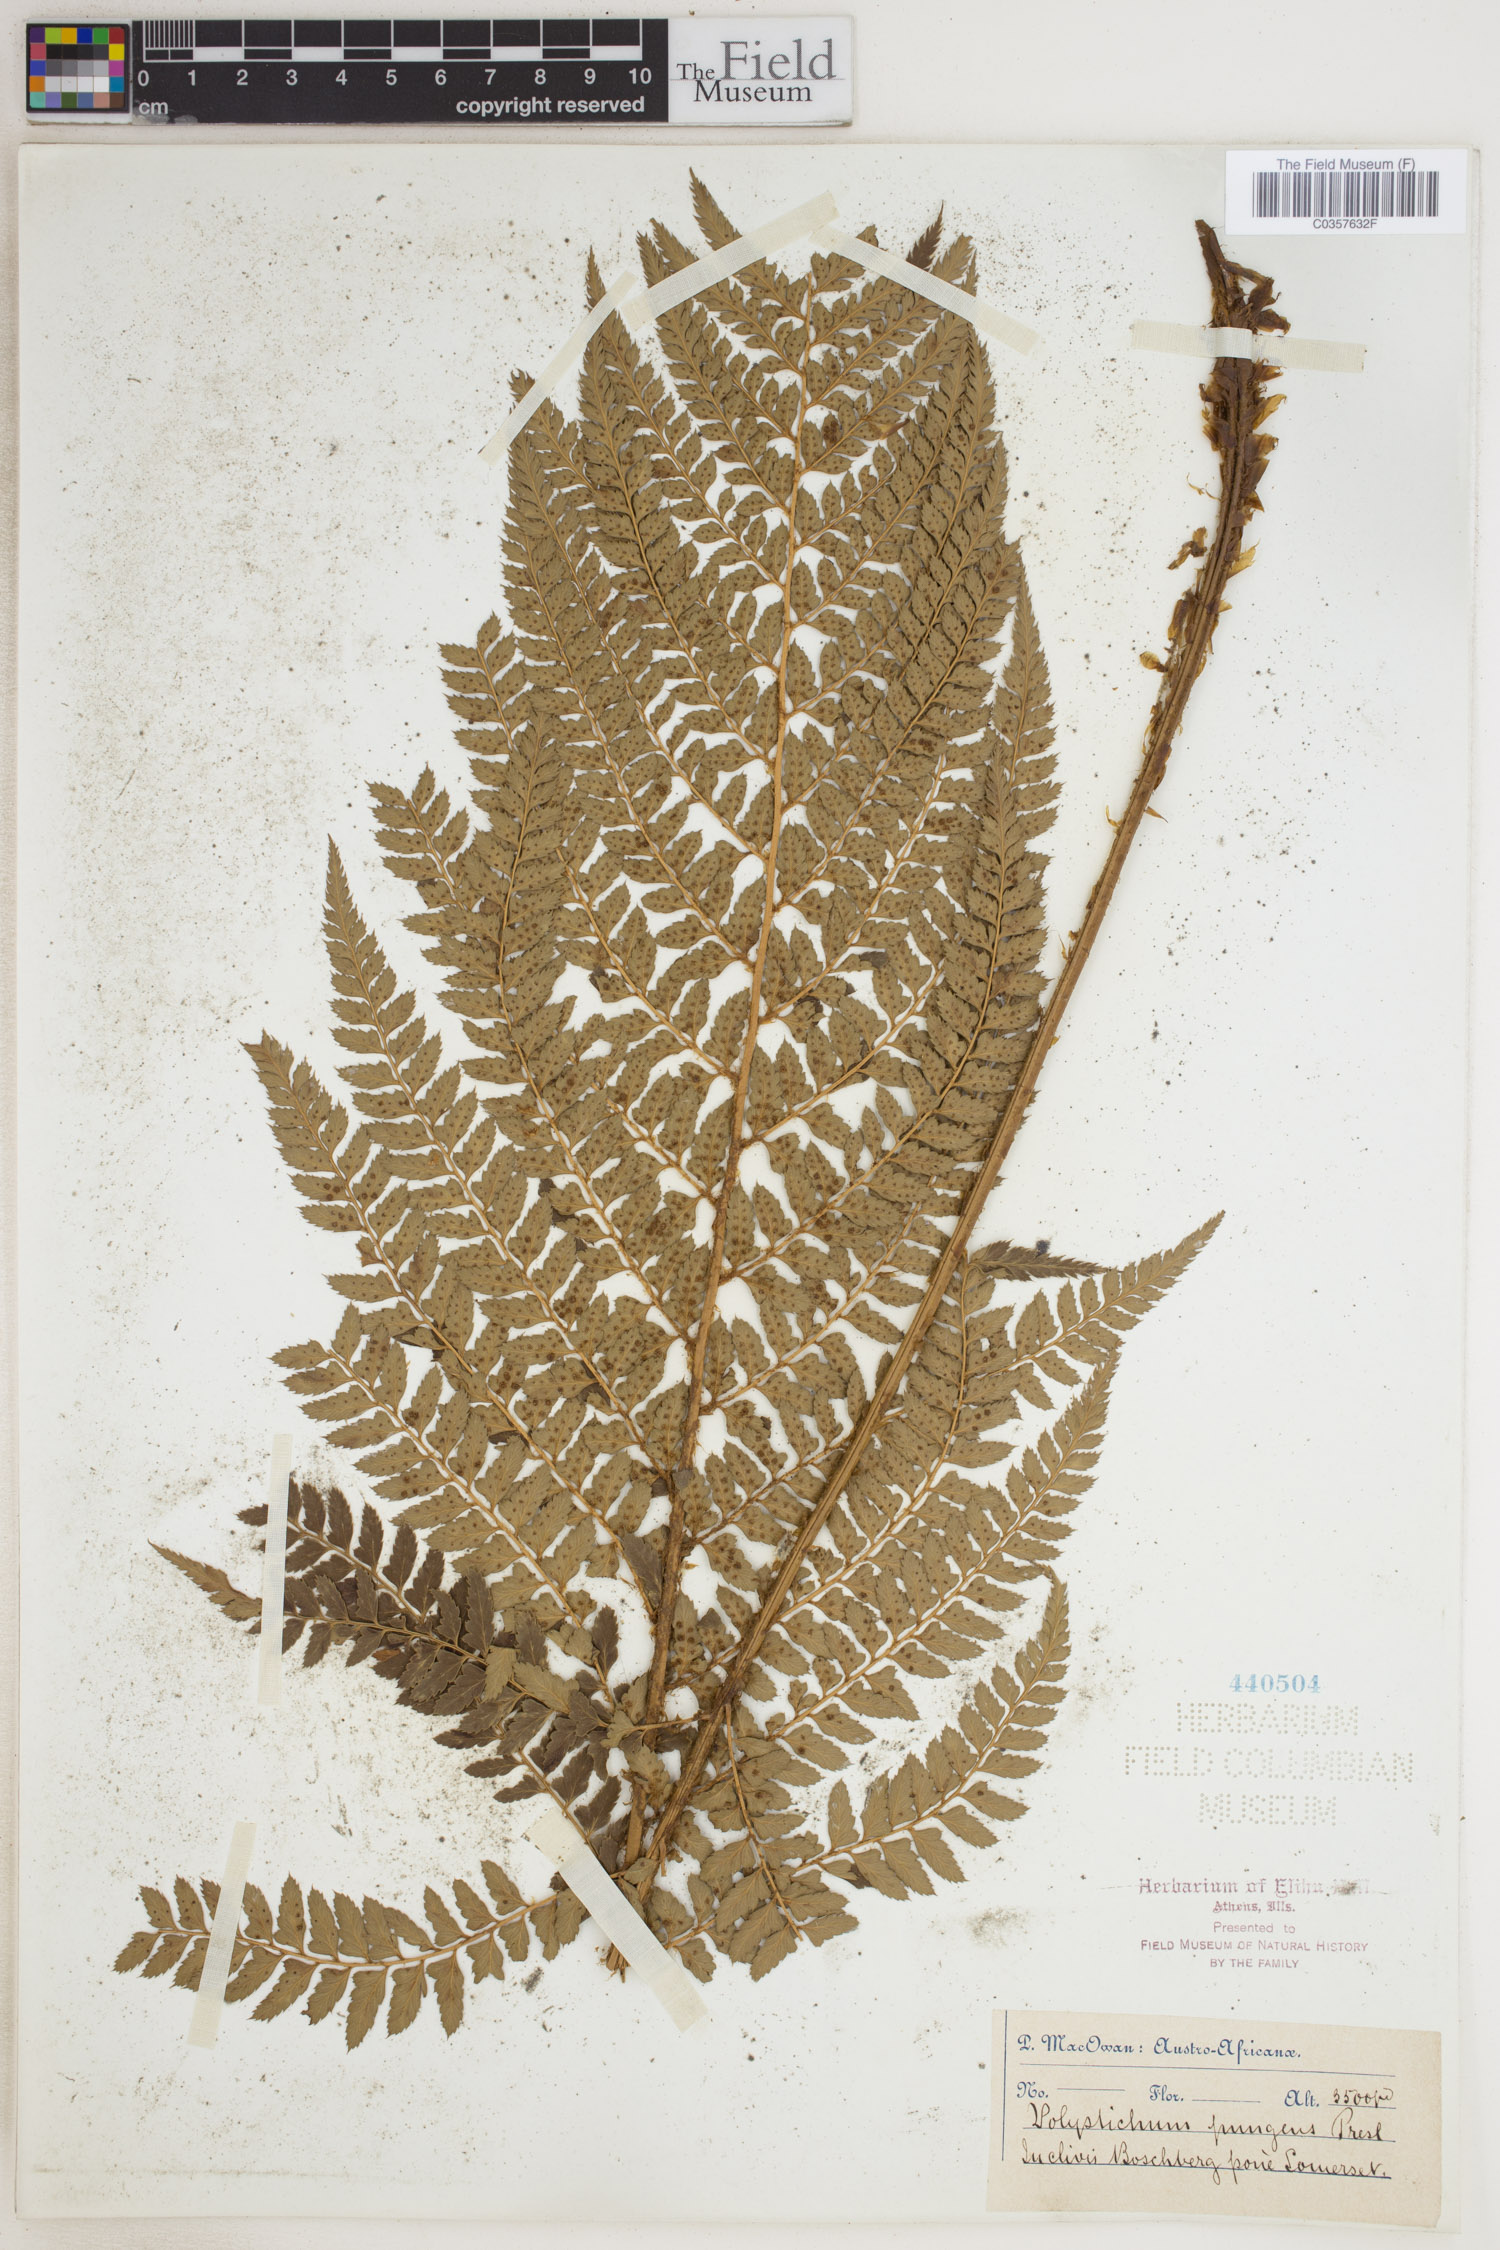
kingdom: Plantae
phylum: Tracheophyta
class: Polypodiopsida
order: Polypodiales
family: Dryopteridaceae
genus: Polystichum
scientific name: Polystichum pungens
